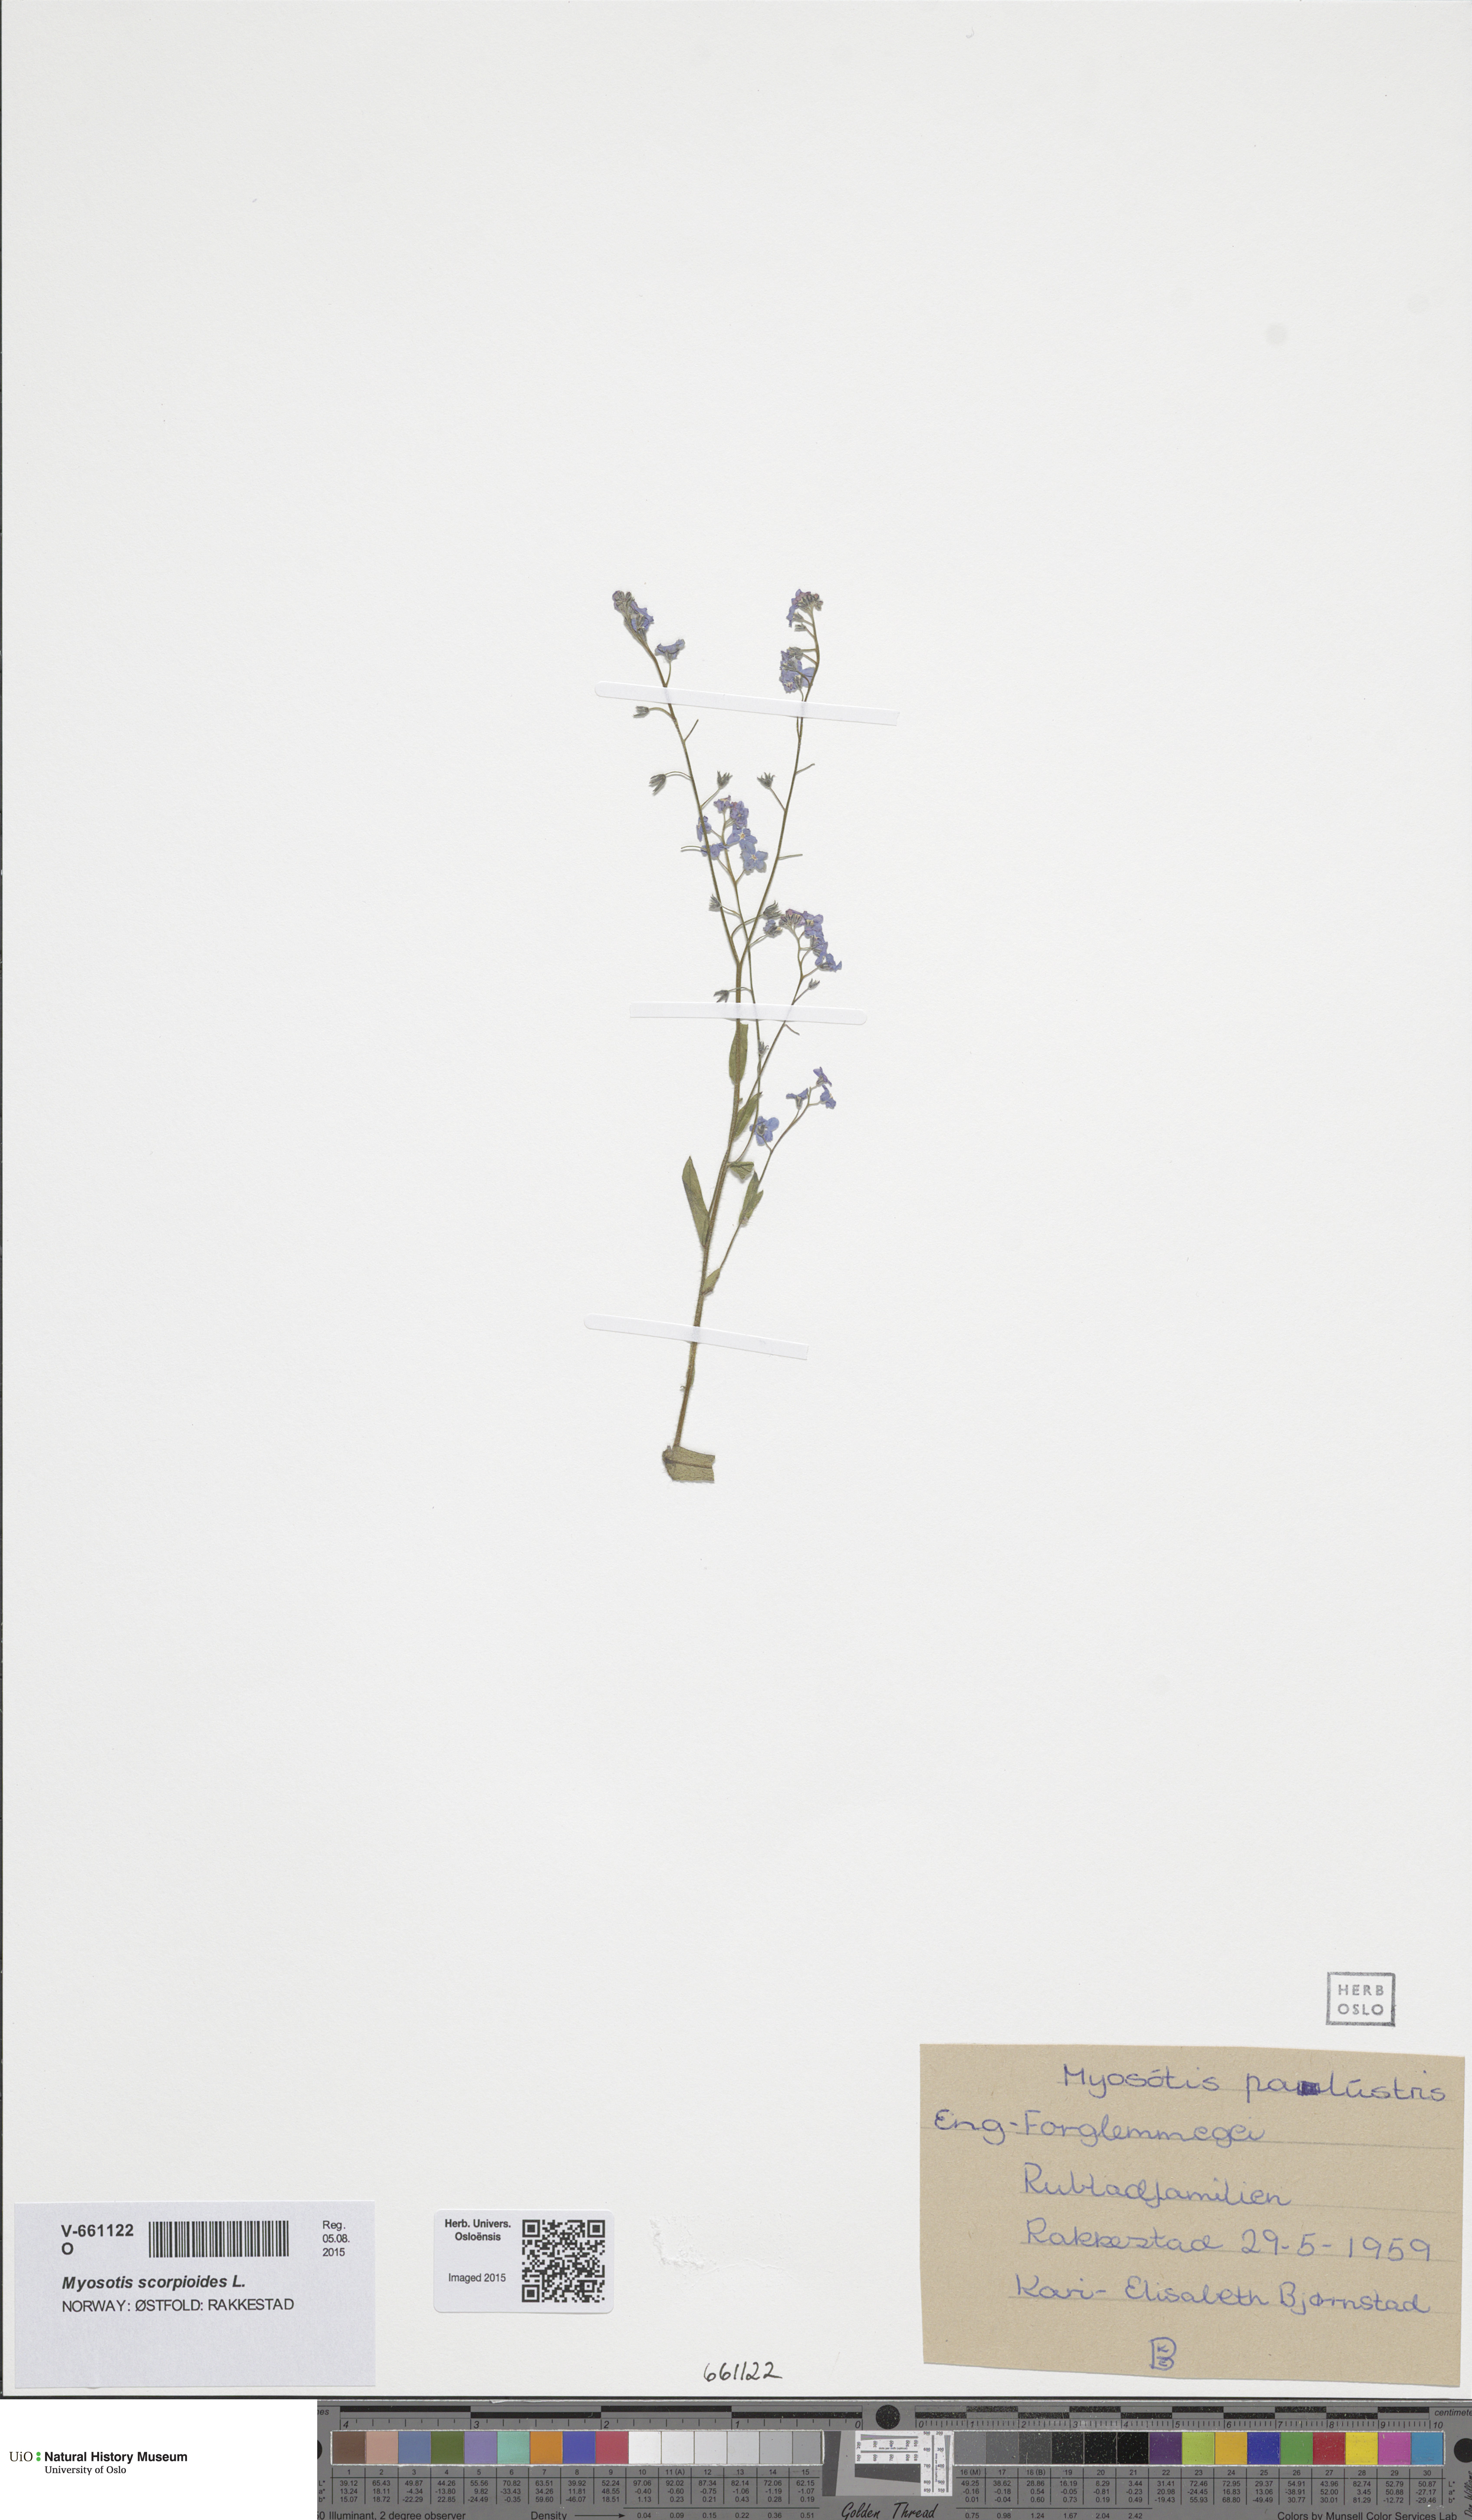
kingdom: Plantae
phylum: Tracheophyta
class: Magnoliopsida
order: Boraginales
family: Boraginaceae
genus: Myosotis
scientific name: Myosotis sylvatica
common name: Wood forget-me-not
